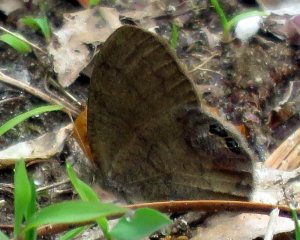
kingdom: Animalia
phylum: Arthropoda
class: Insecta
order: Lepidoptera
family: Nymphalidae
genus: Euptychia
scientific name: Euptychia cornelius
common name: Gemmed Satyr
